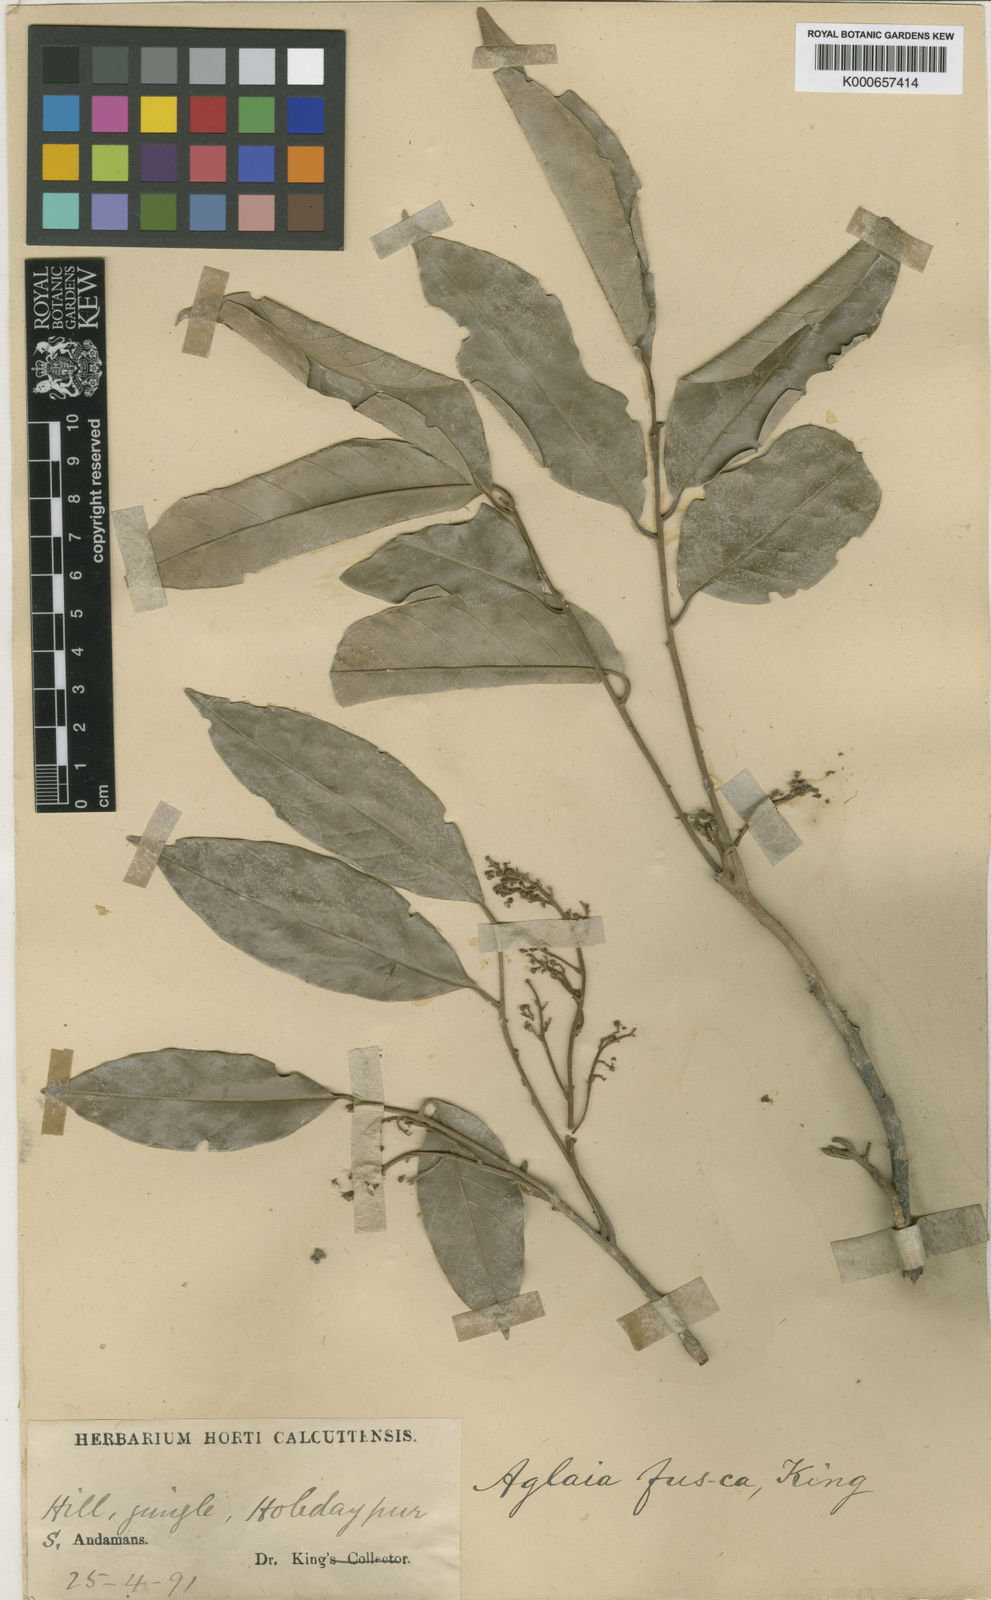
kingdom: Plantae
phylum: Tracheophyta
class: Magnoliopsida
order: Sapindales
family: Meliaceae
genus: Aglaia
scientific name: Aglaia oligophylla
